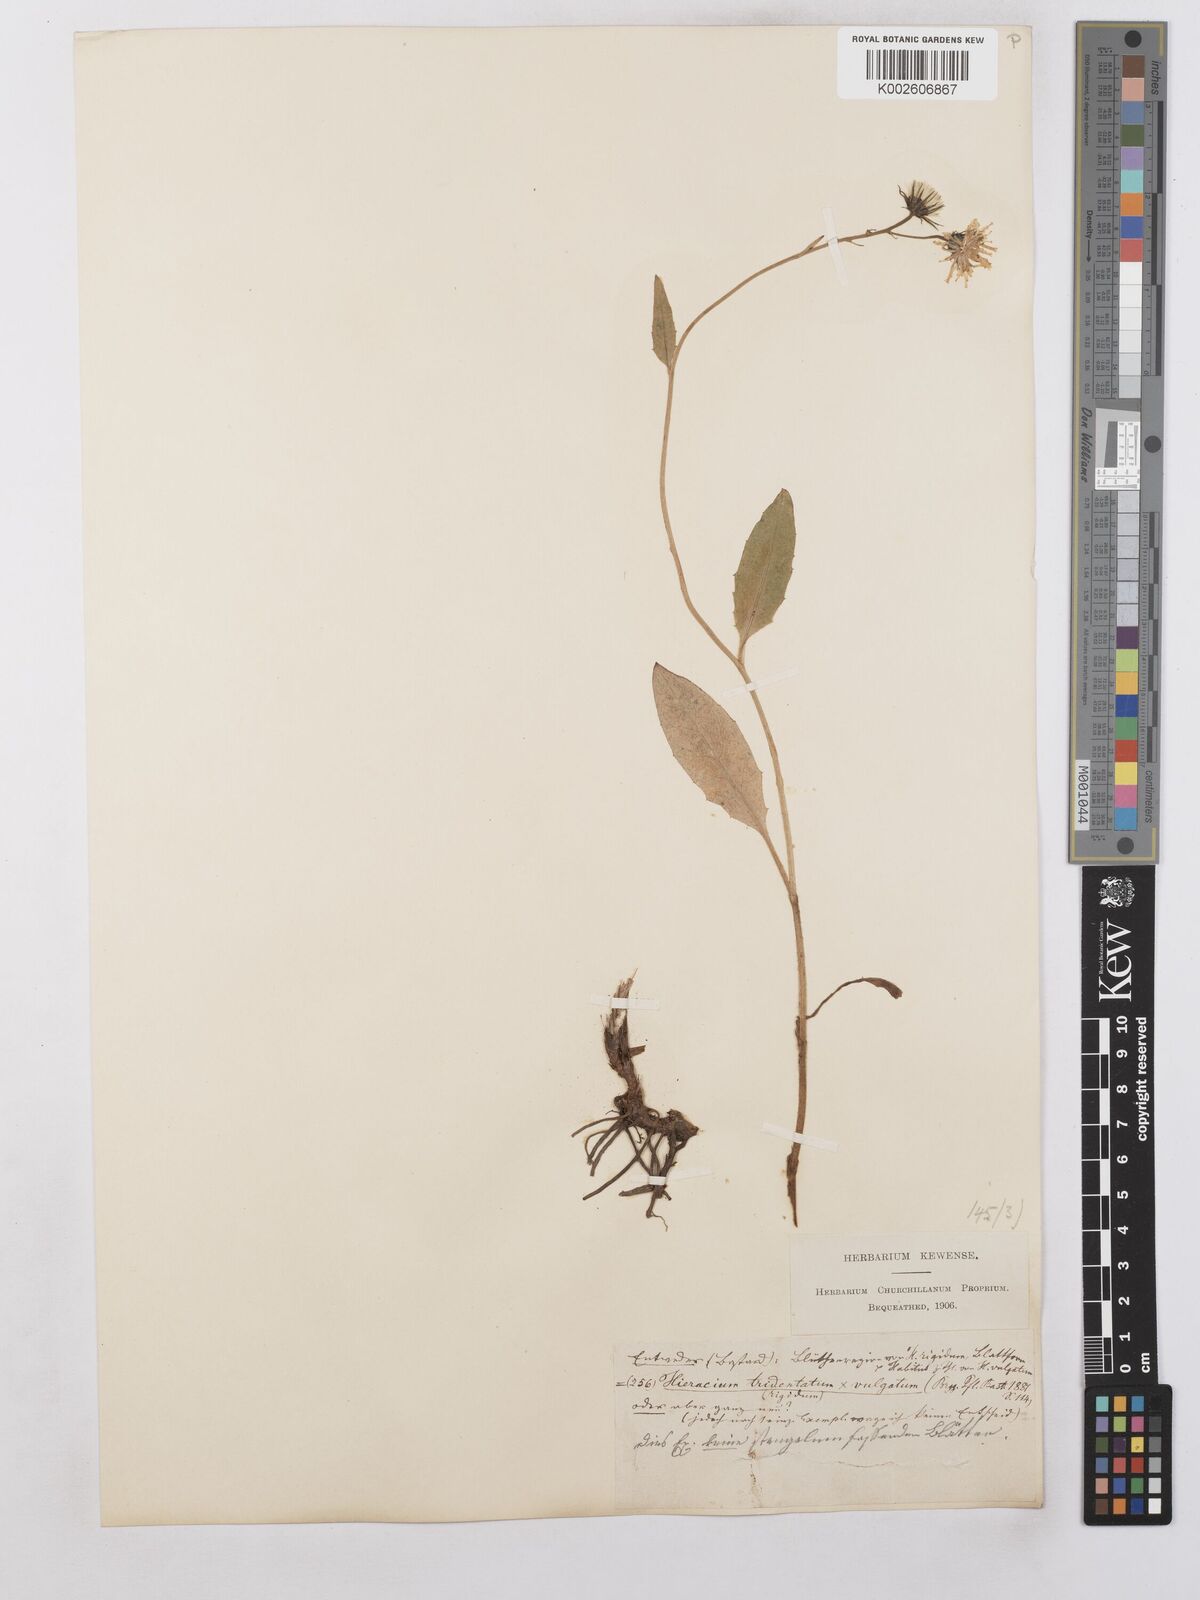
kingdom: Plantae
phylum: Tracheophyta
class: Magnoliopsida
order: Asterales
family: Asteraceae
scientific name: Asteraceae
